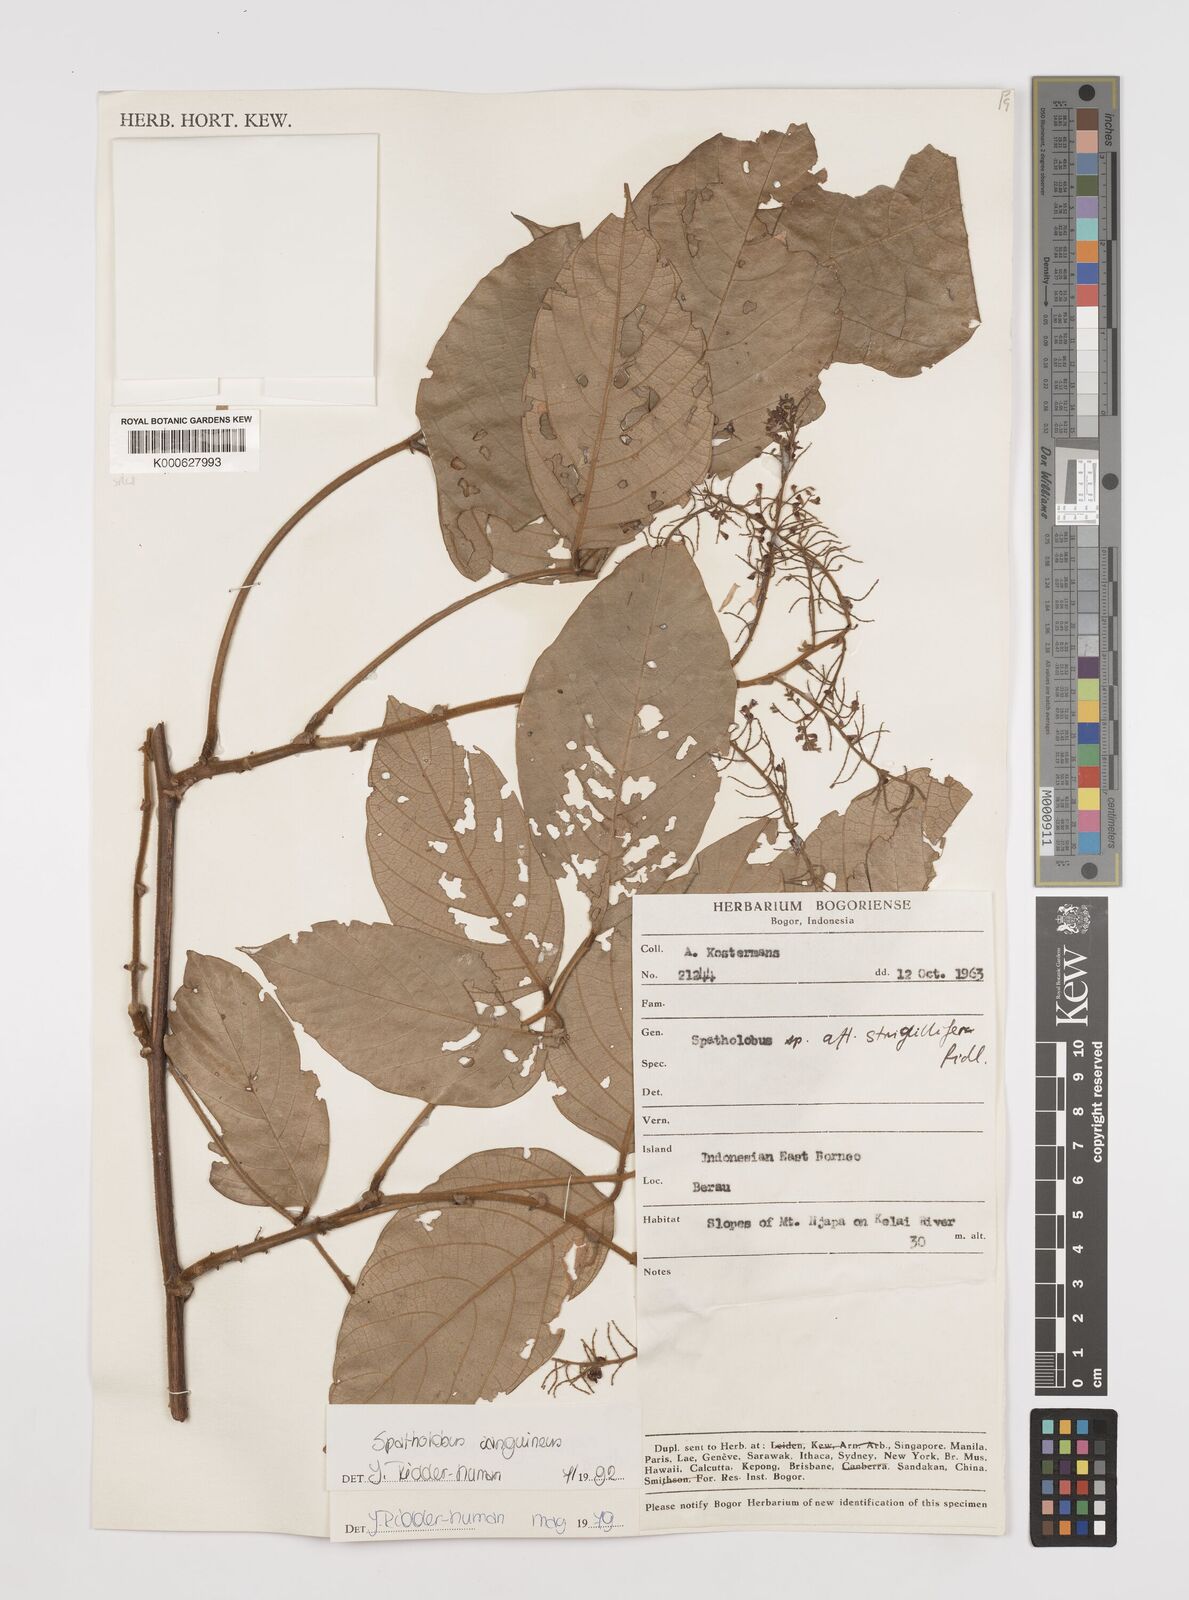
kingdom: Plantae
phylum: Tracheophyta
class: Magnoliopsida
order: Fabales
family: Fabaceae
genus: Spatholobus
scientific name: Spatholobus
